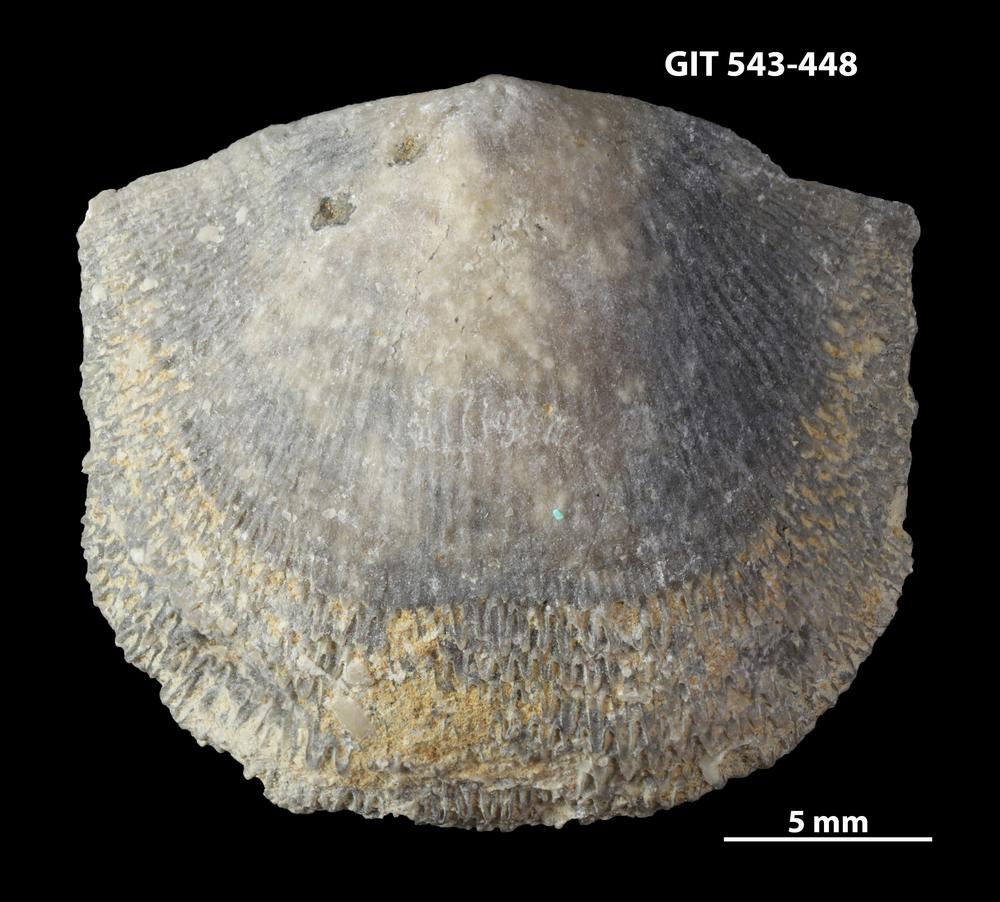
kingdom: Animalia
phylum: Brachiopoda
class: Rhynchonellata
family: Clitambonitidae
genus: Clitambonites
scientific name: Clitambonites
